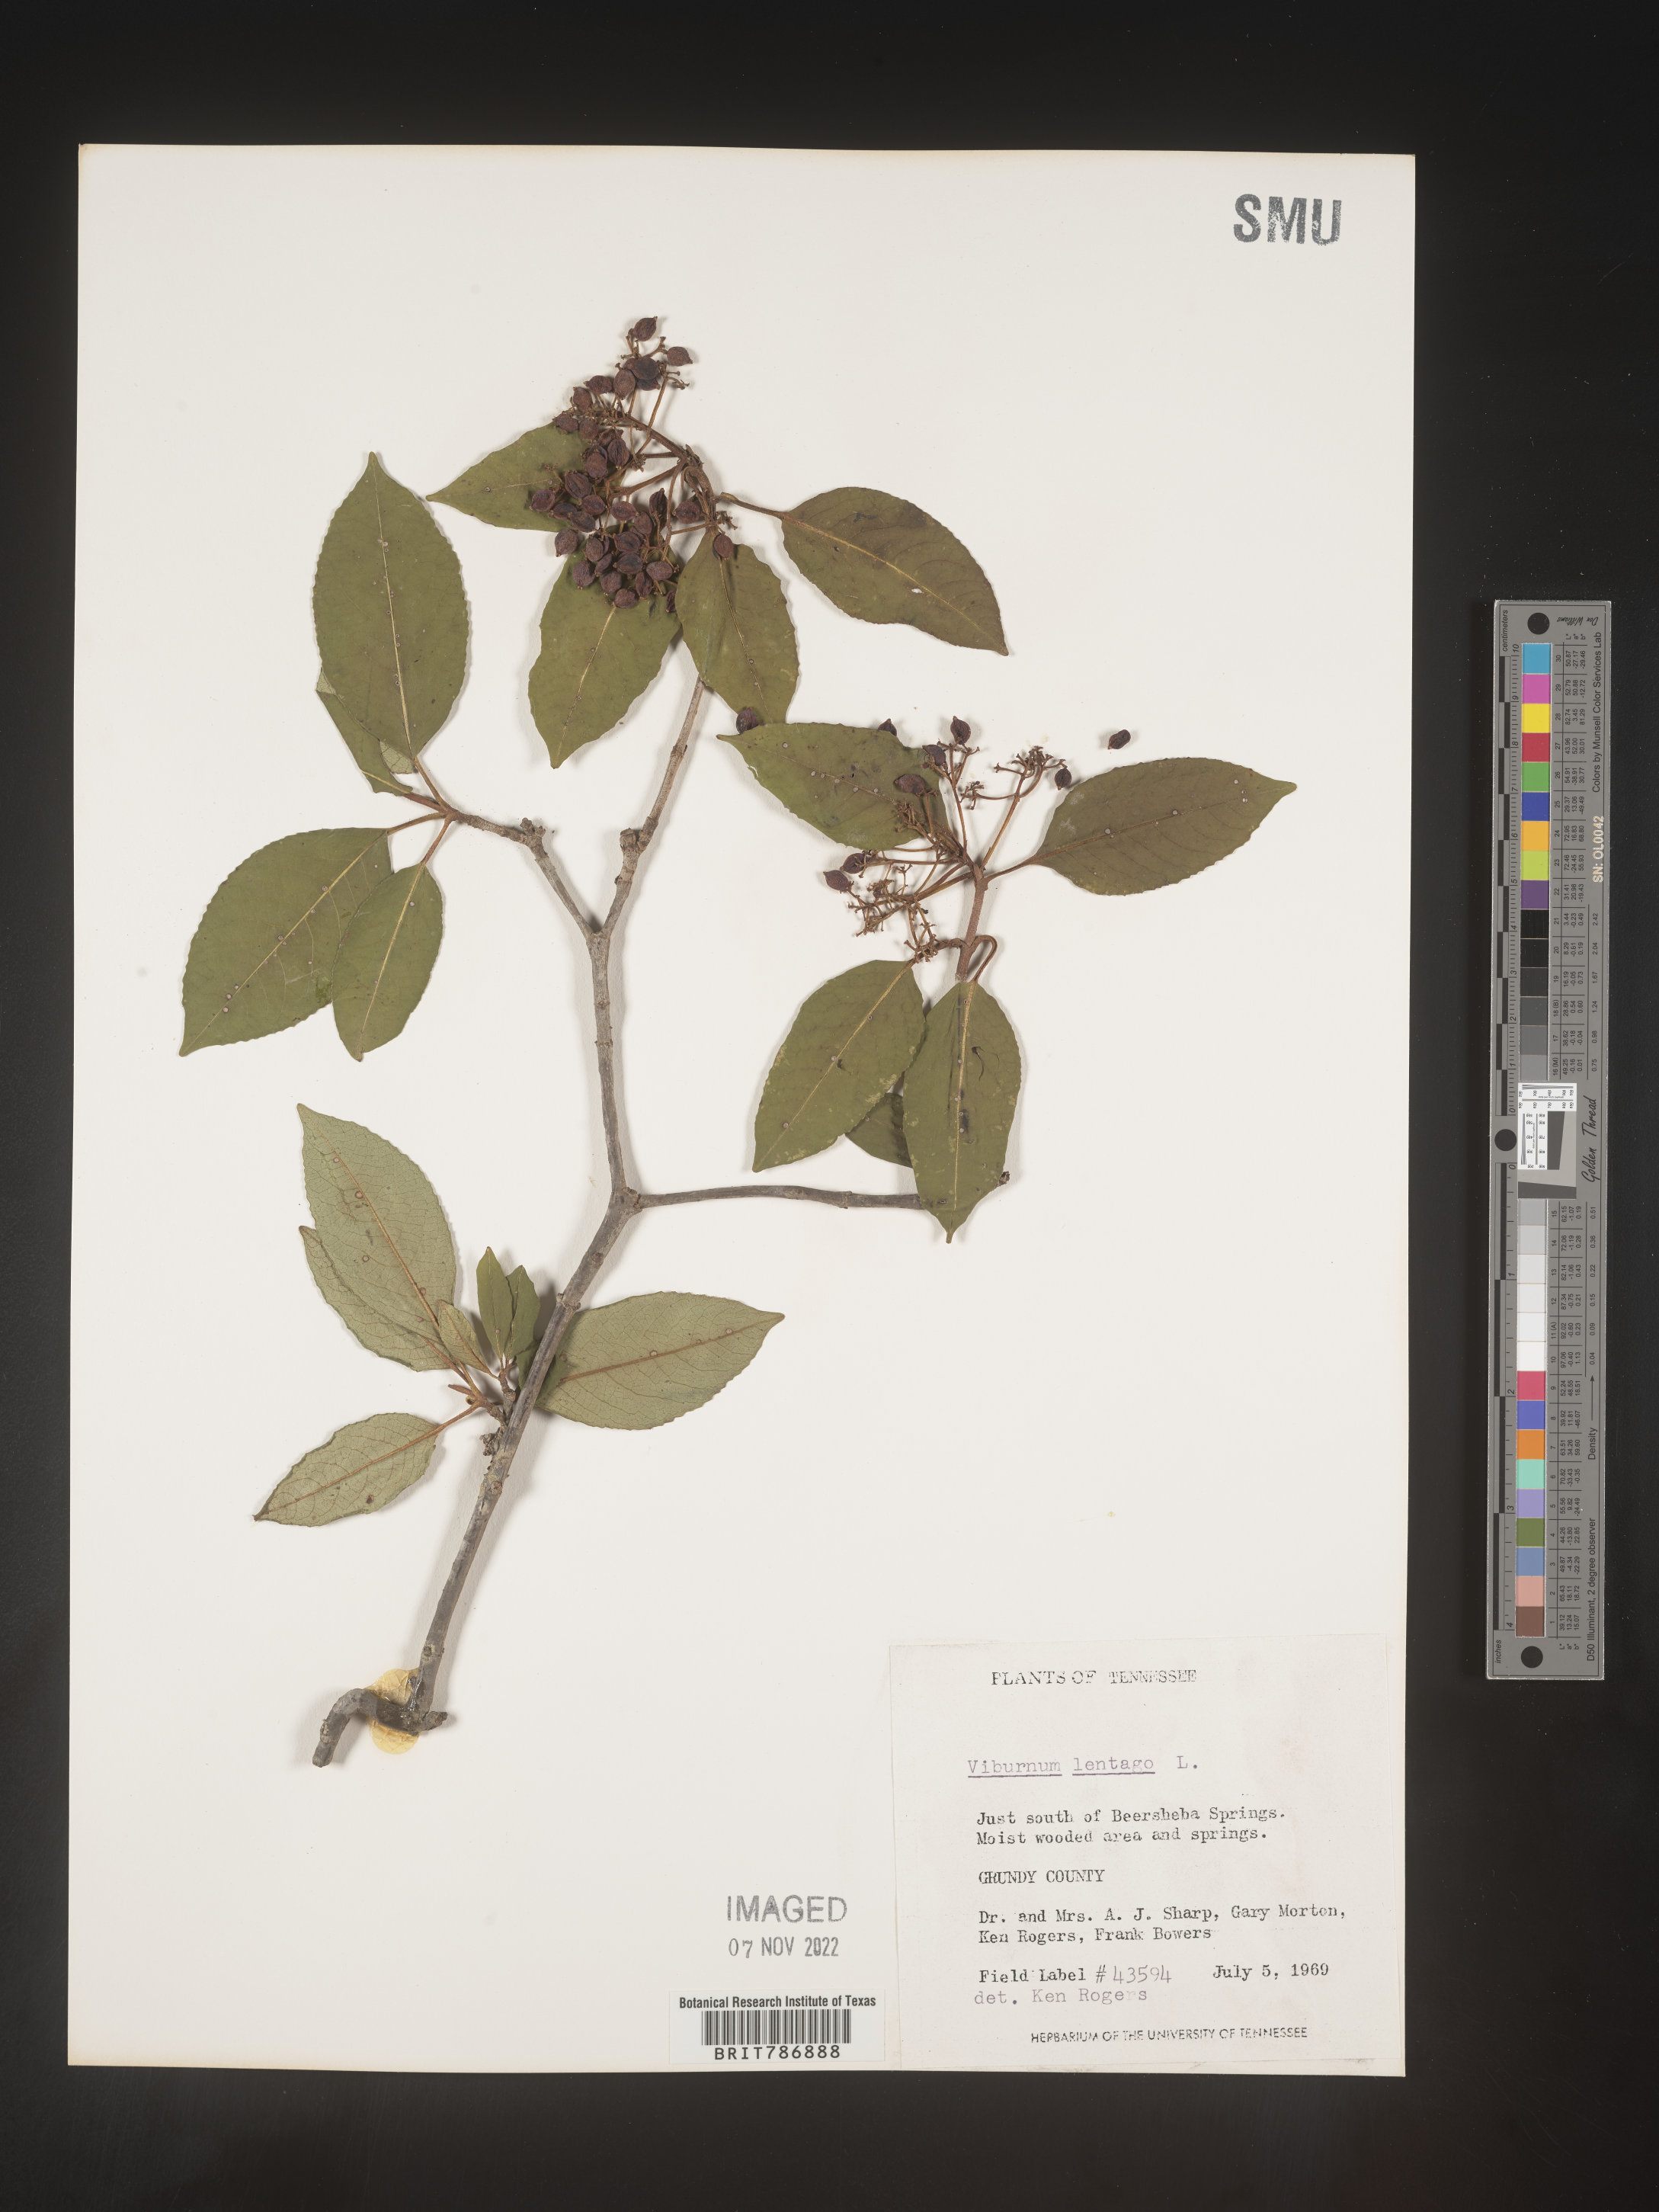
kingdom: Plantae
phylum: Tracheophyta
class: Magnoliopsida
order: Dipsacales
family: Viburnaceae
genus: Viburnum
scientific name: Viburnum lentago
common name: Black haw
